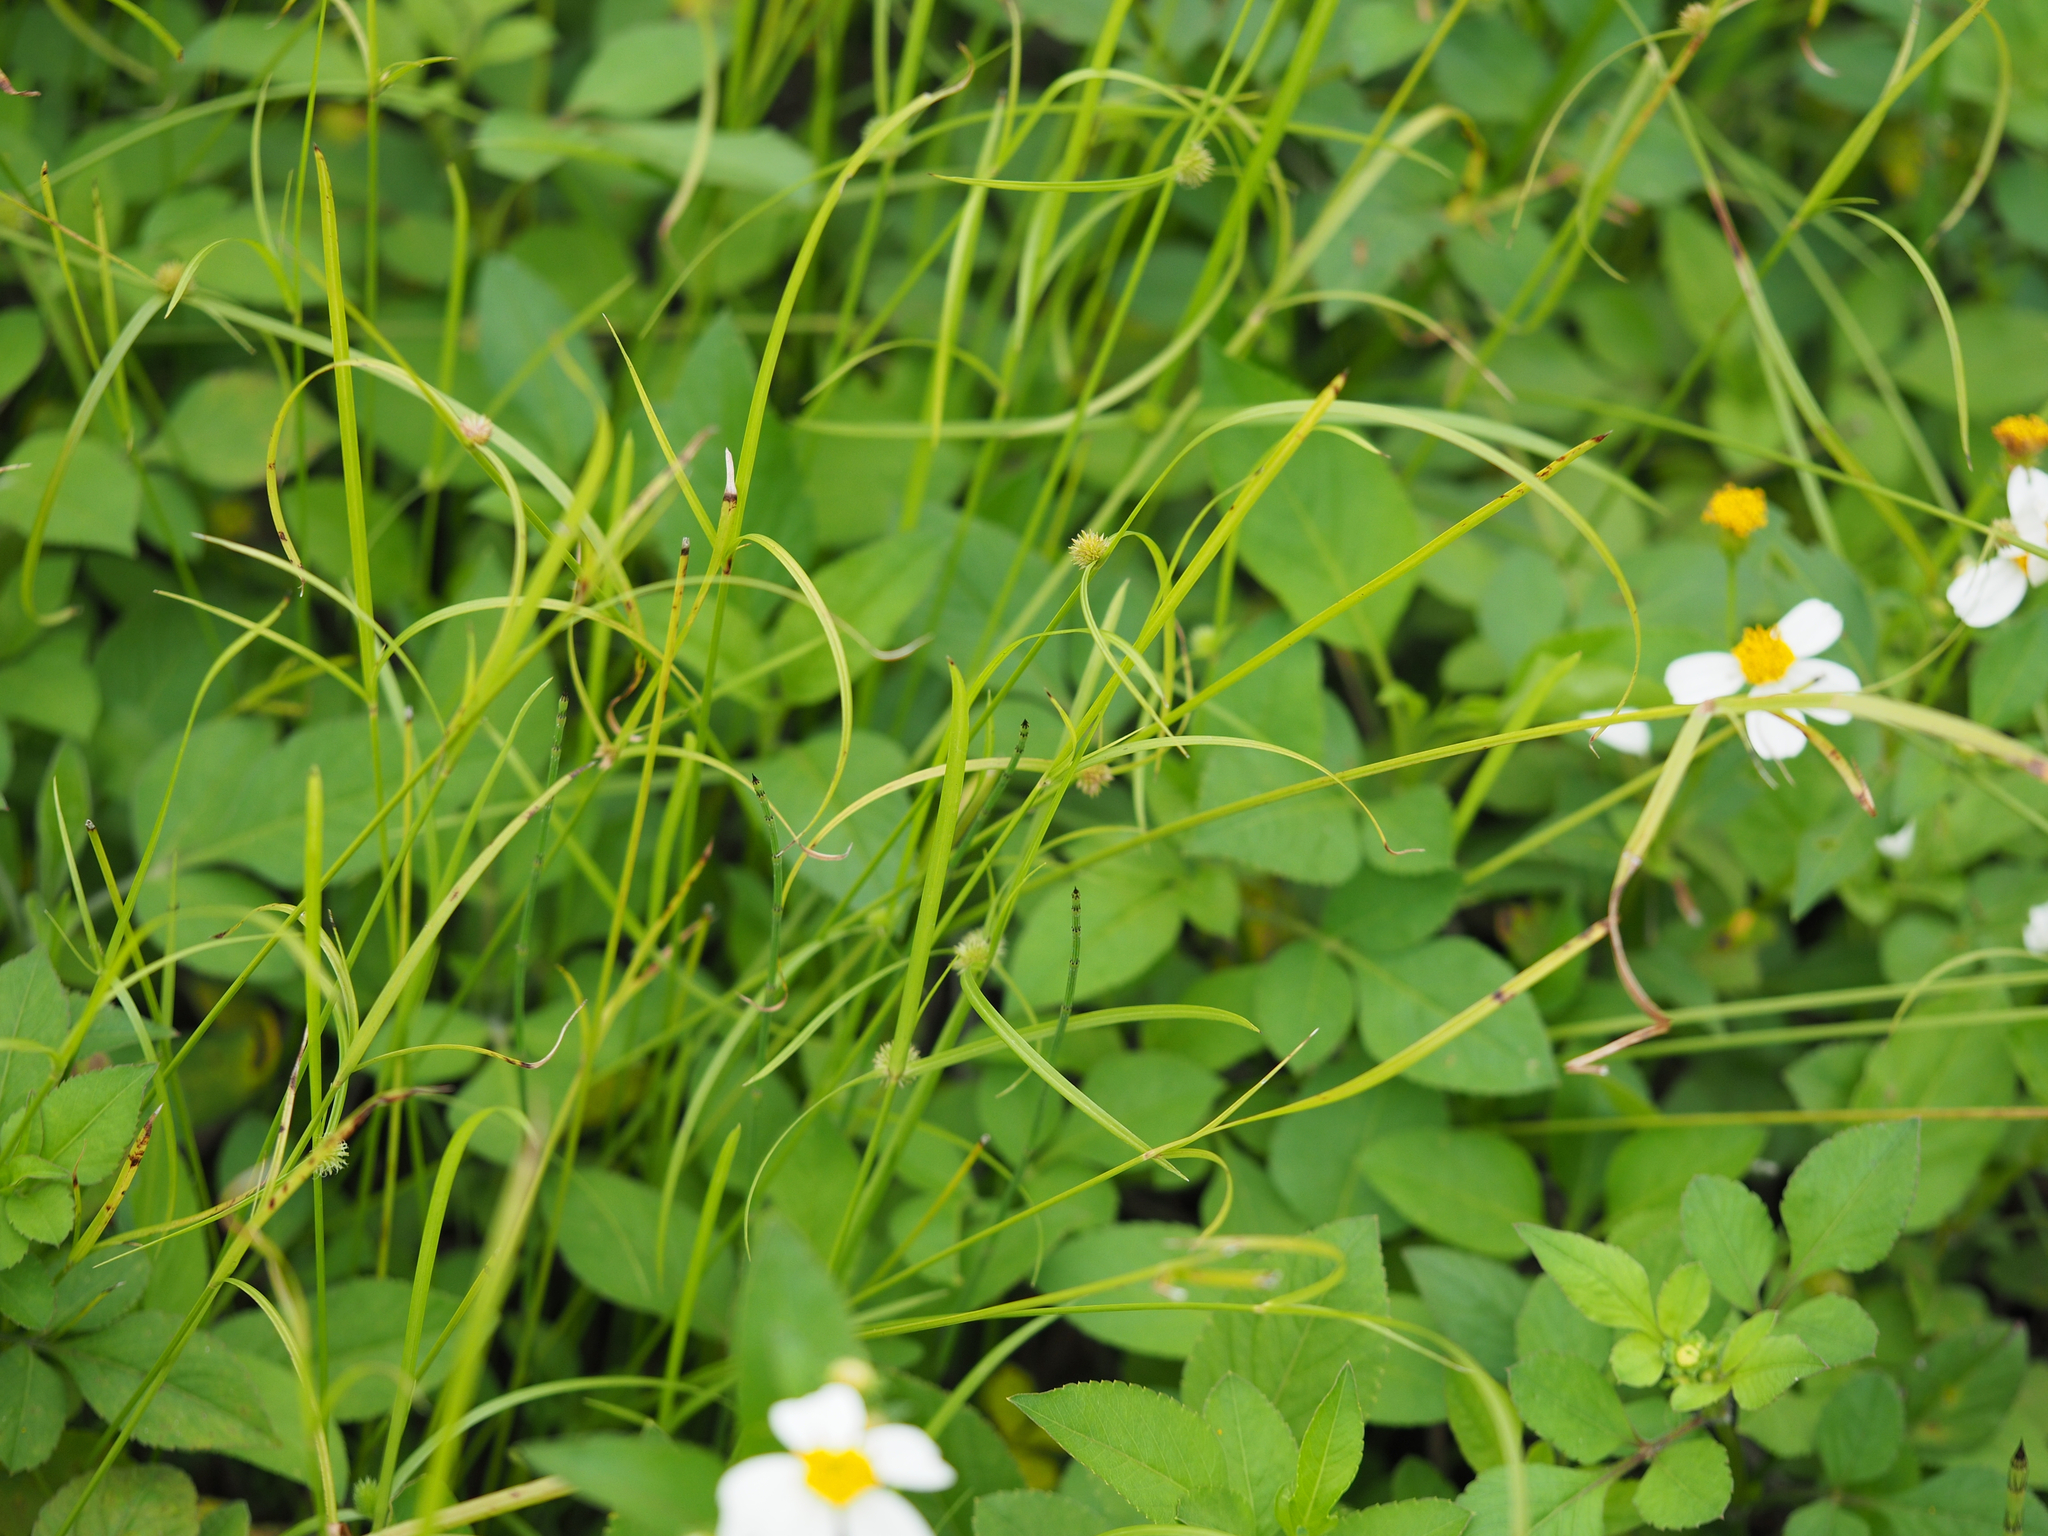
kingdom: Plantae
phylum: Tracheophyta
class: Liliopsida
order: Poales
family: Cyperaceae
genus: Cyperus
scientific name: Cyperus brevifolius
